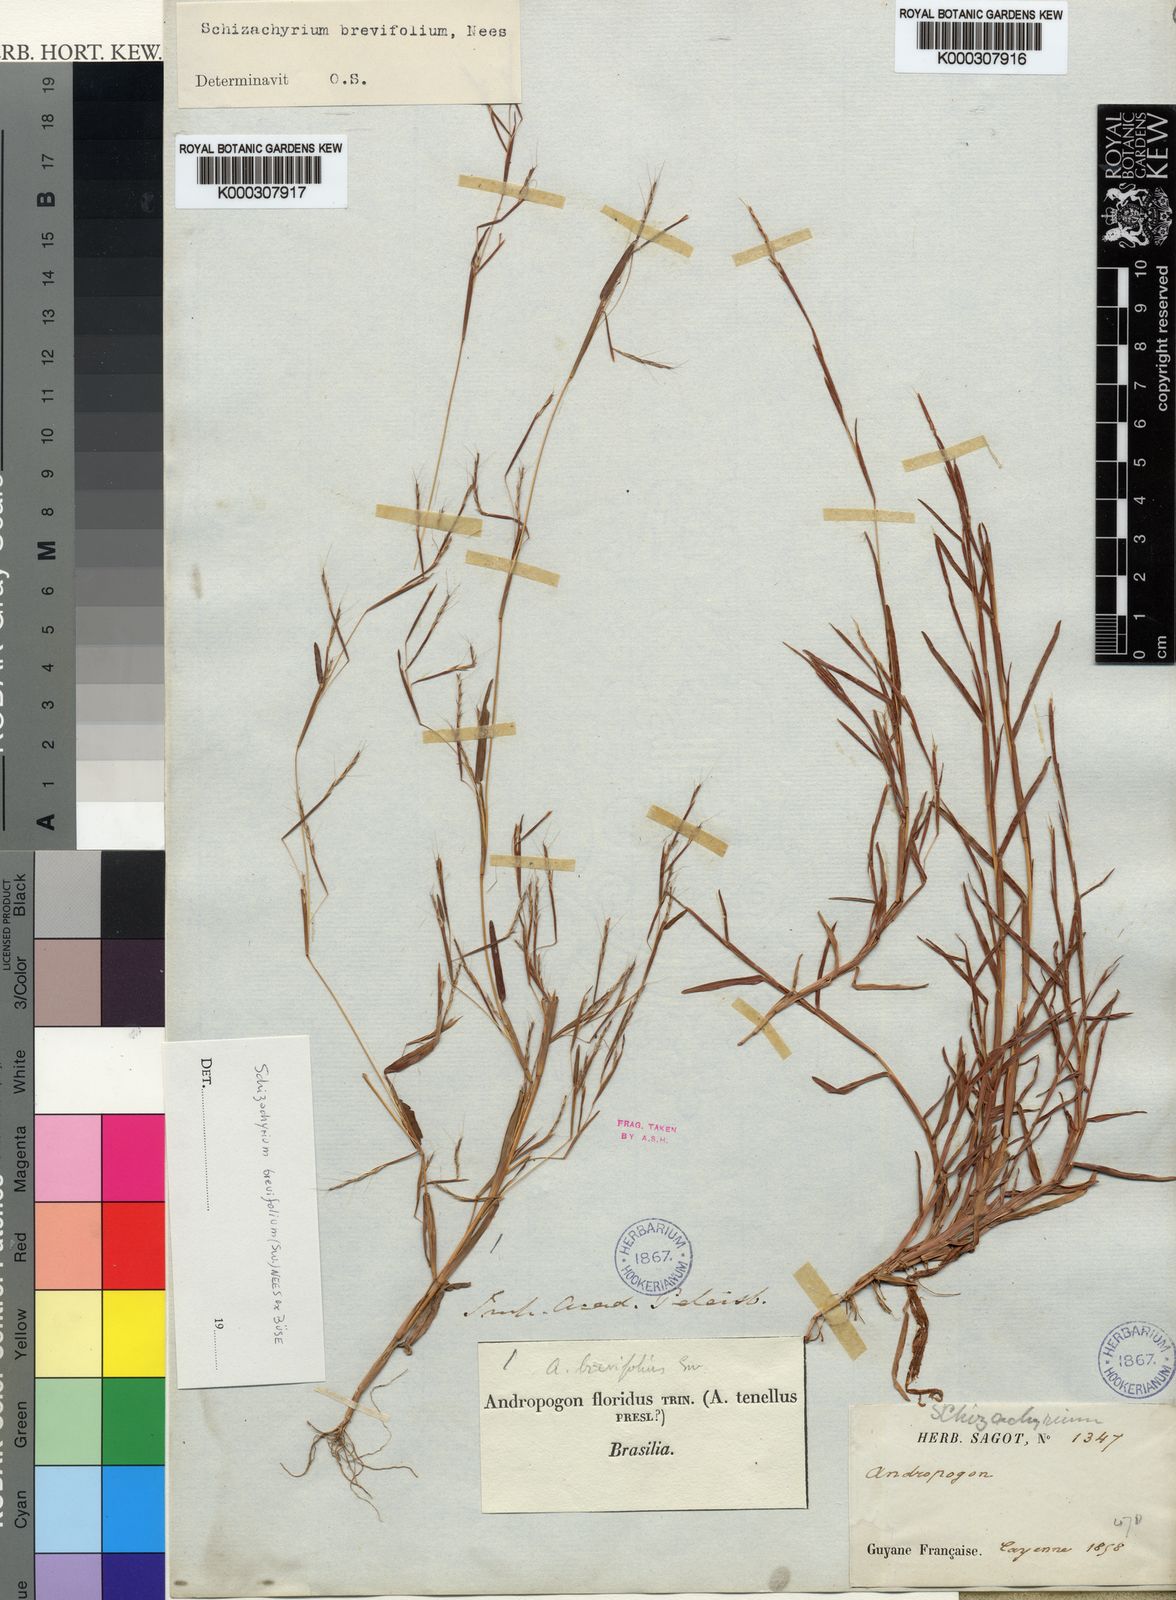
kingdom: Plantae
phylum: Tracheophyta
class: Liliopsida
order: Poales
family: Poaceae
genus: Schizachyrium
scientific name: Schizachyrium
